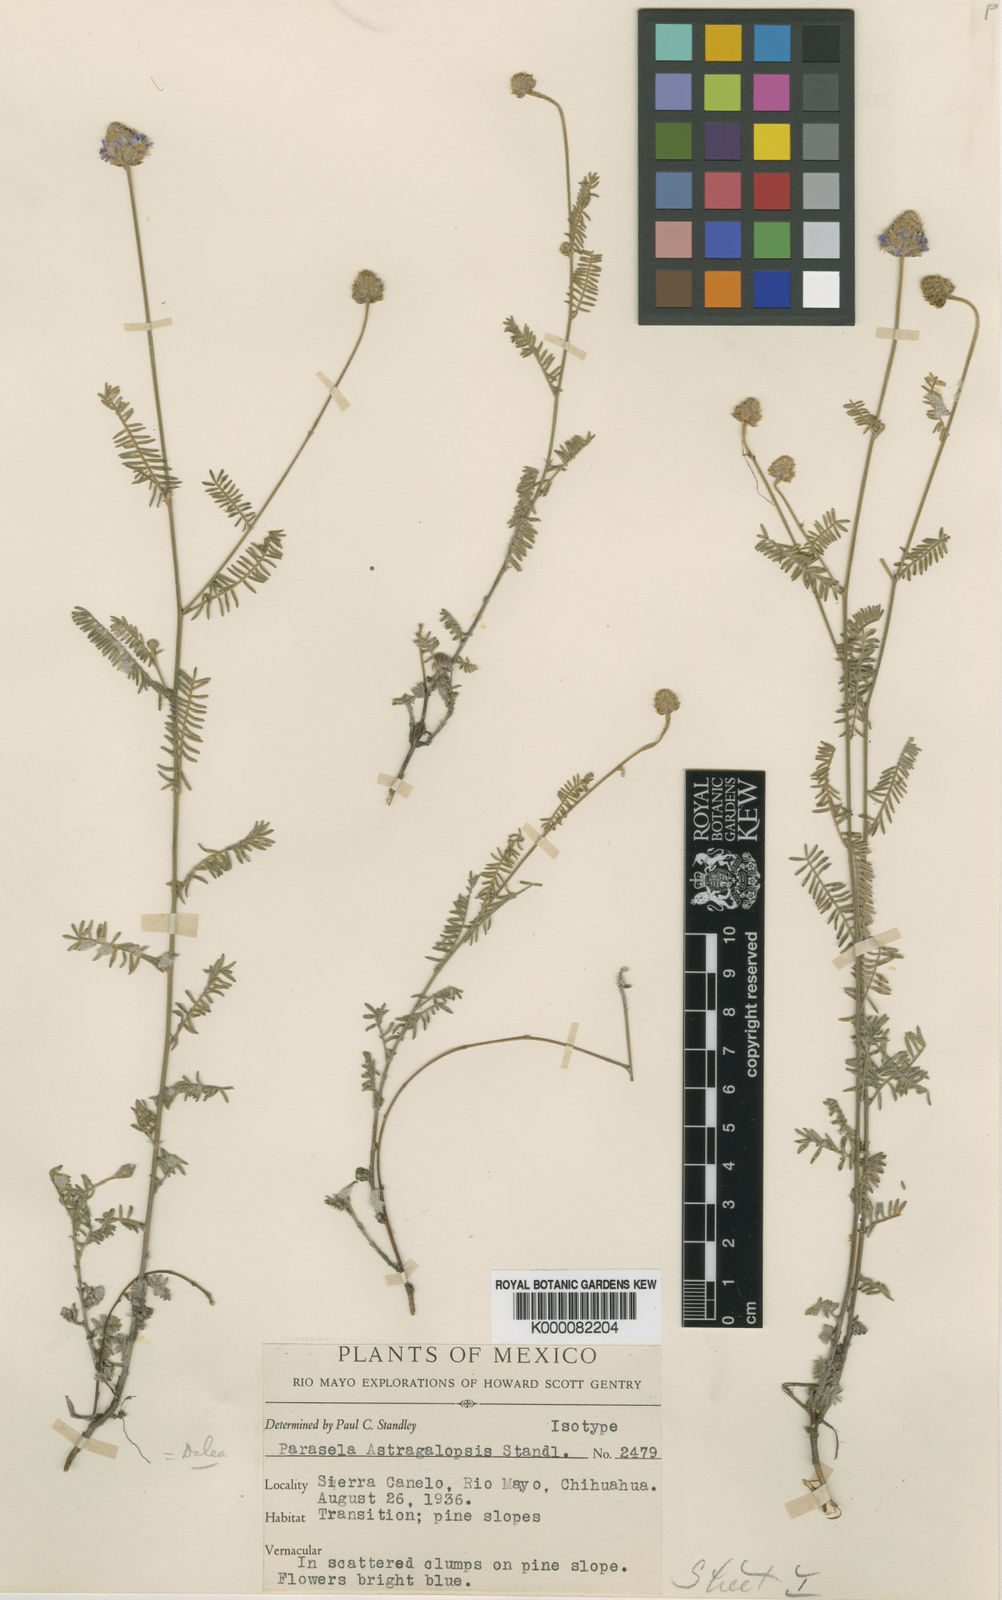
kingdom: Plantae
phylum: Tracheophyta
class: Magnoliopsida
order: Fabales
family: Fabaceae
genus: Dalea
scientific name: Dalea lumholtzii
